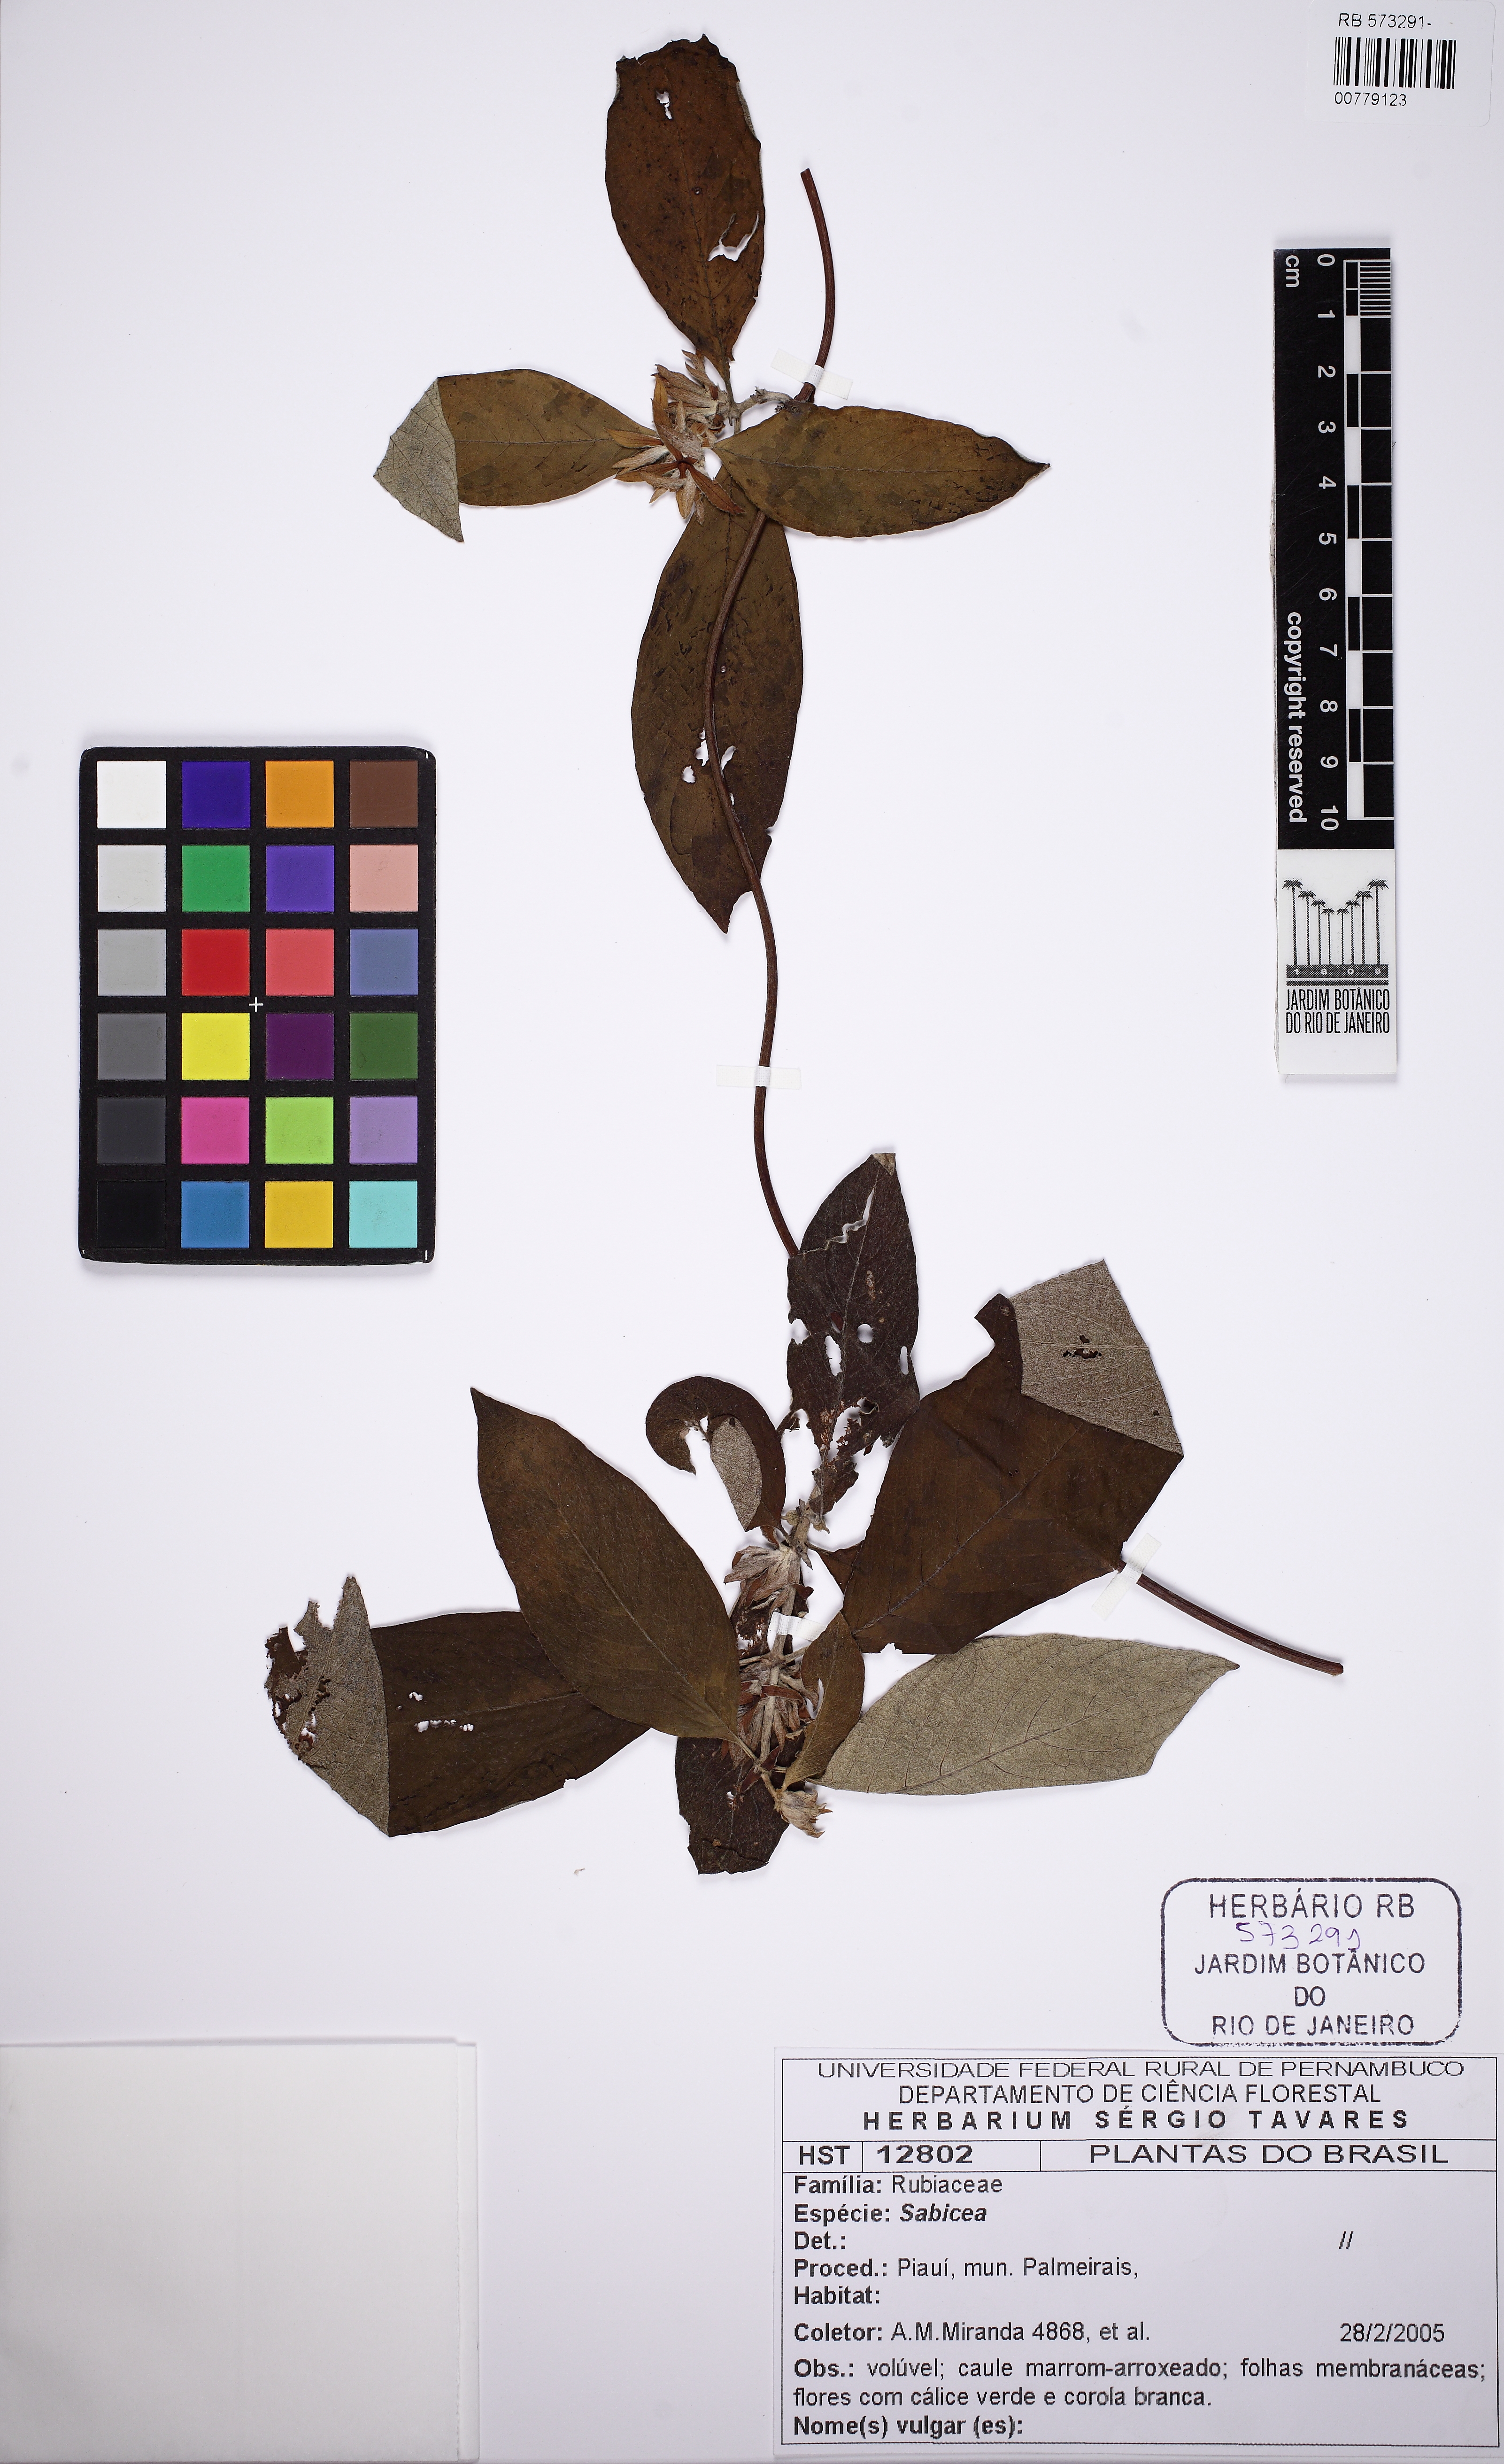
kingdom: Plantae
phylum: Tracheophyta
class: Magnoliopsida
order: Gentianales
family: Rubiaceae
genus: Sabicea
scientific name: Sabicea
